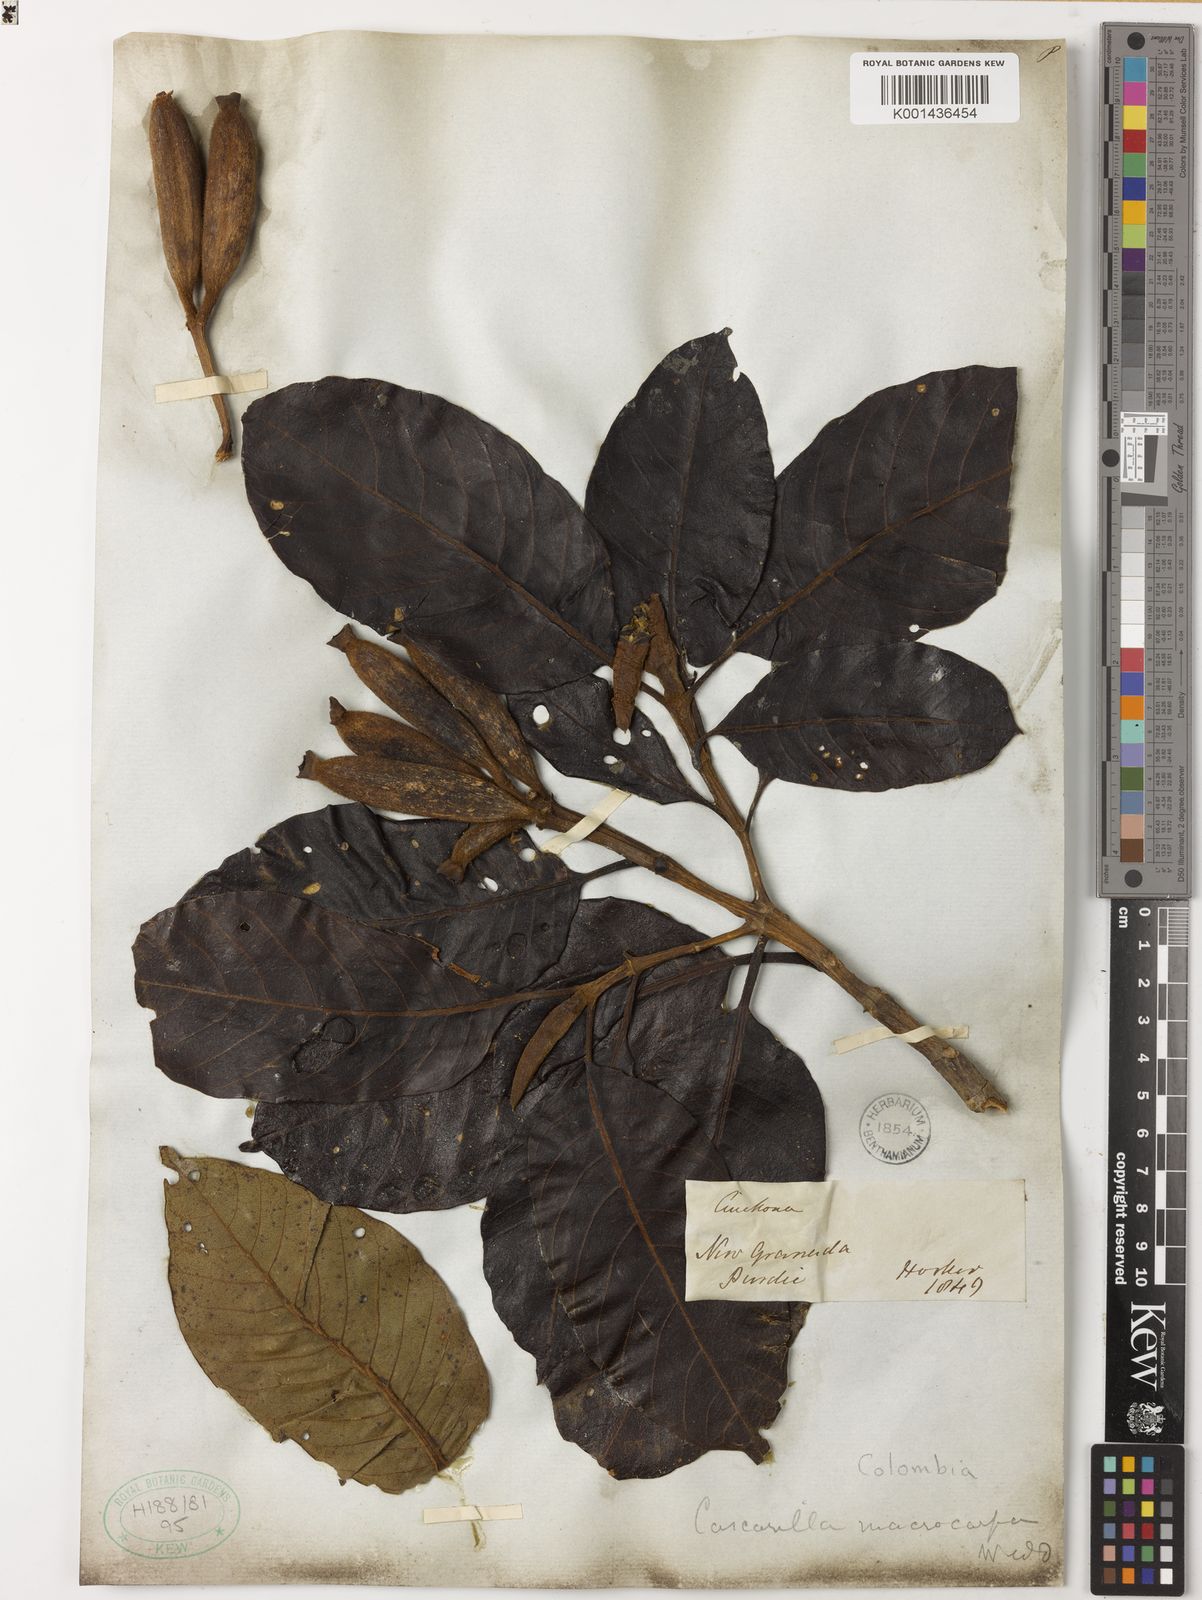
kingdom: Plantae
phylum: Tracheophyta
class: Magnoliopsida
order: Gentianales
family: Rubiaceae
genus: Ladenbergia
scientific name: Ladenbergia macrocarpa
